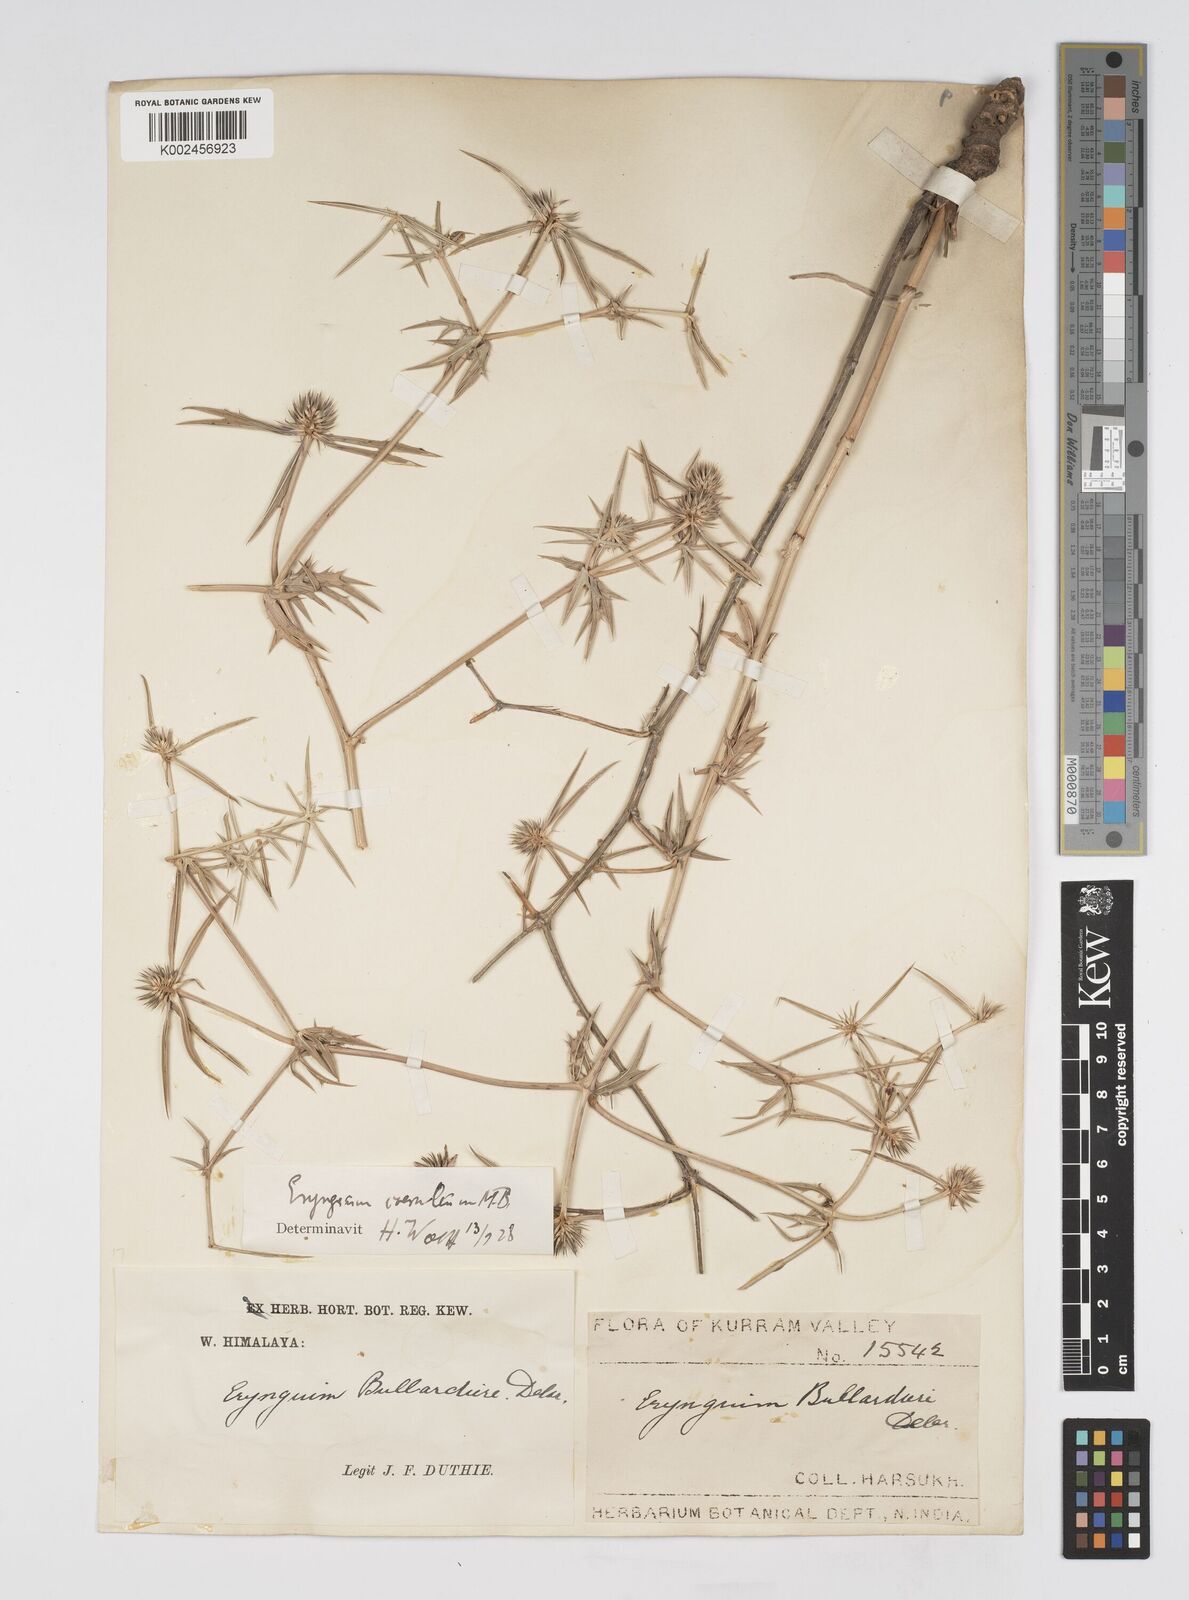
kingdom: Plantae
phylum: Tracheophyta
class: Magnoliopsida
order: Apiales
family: Apiaceae
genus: Eryngium
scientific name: Eryngium caeruleum
